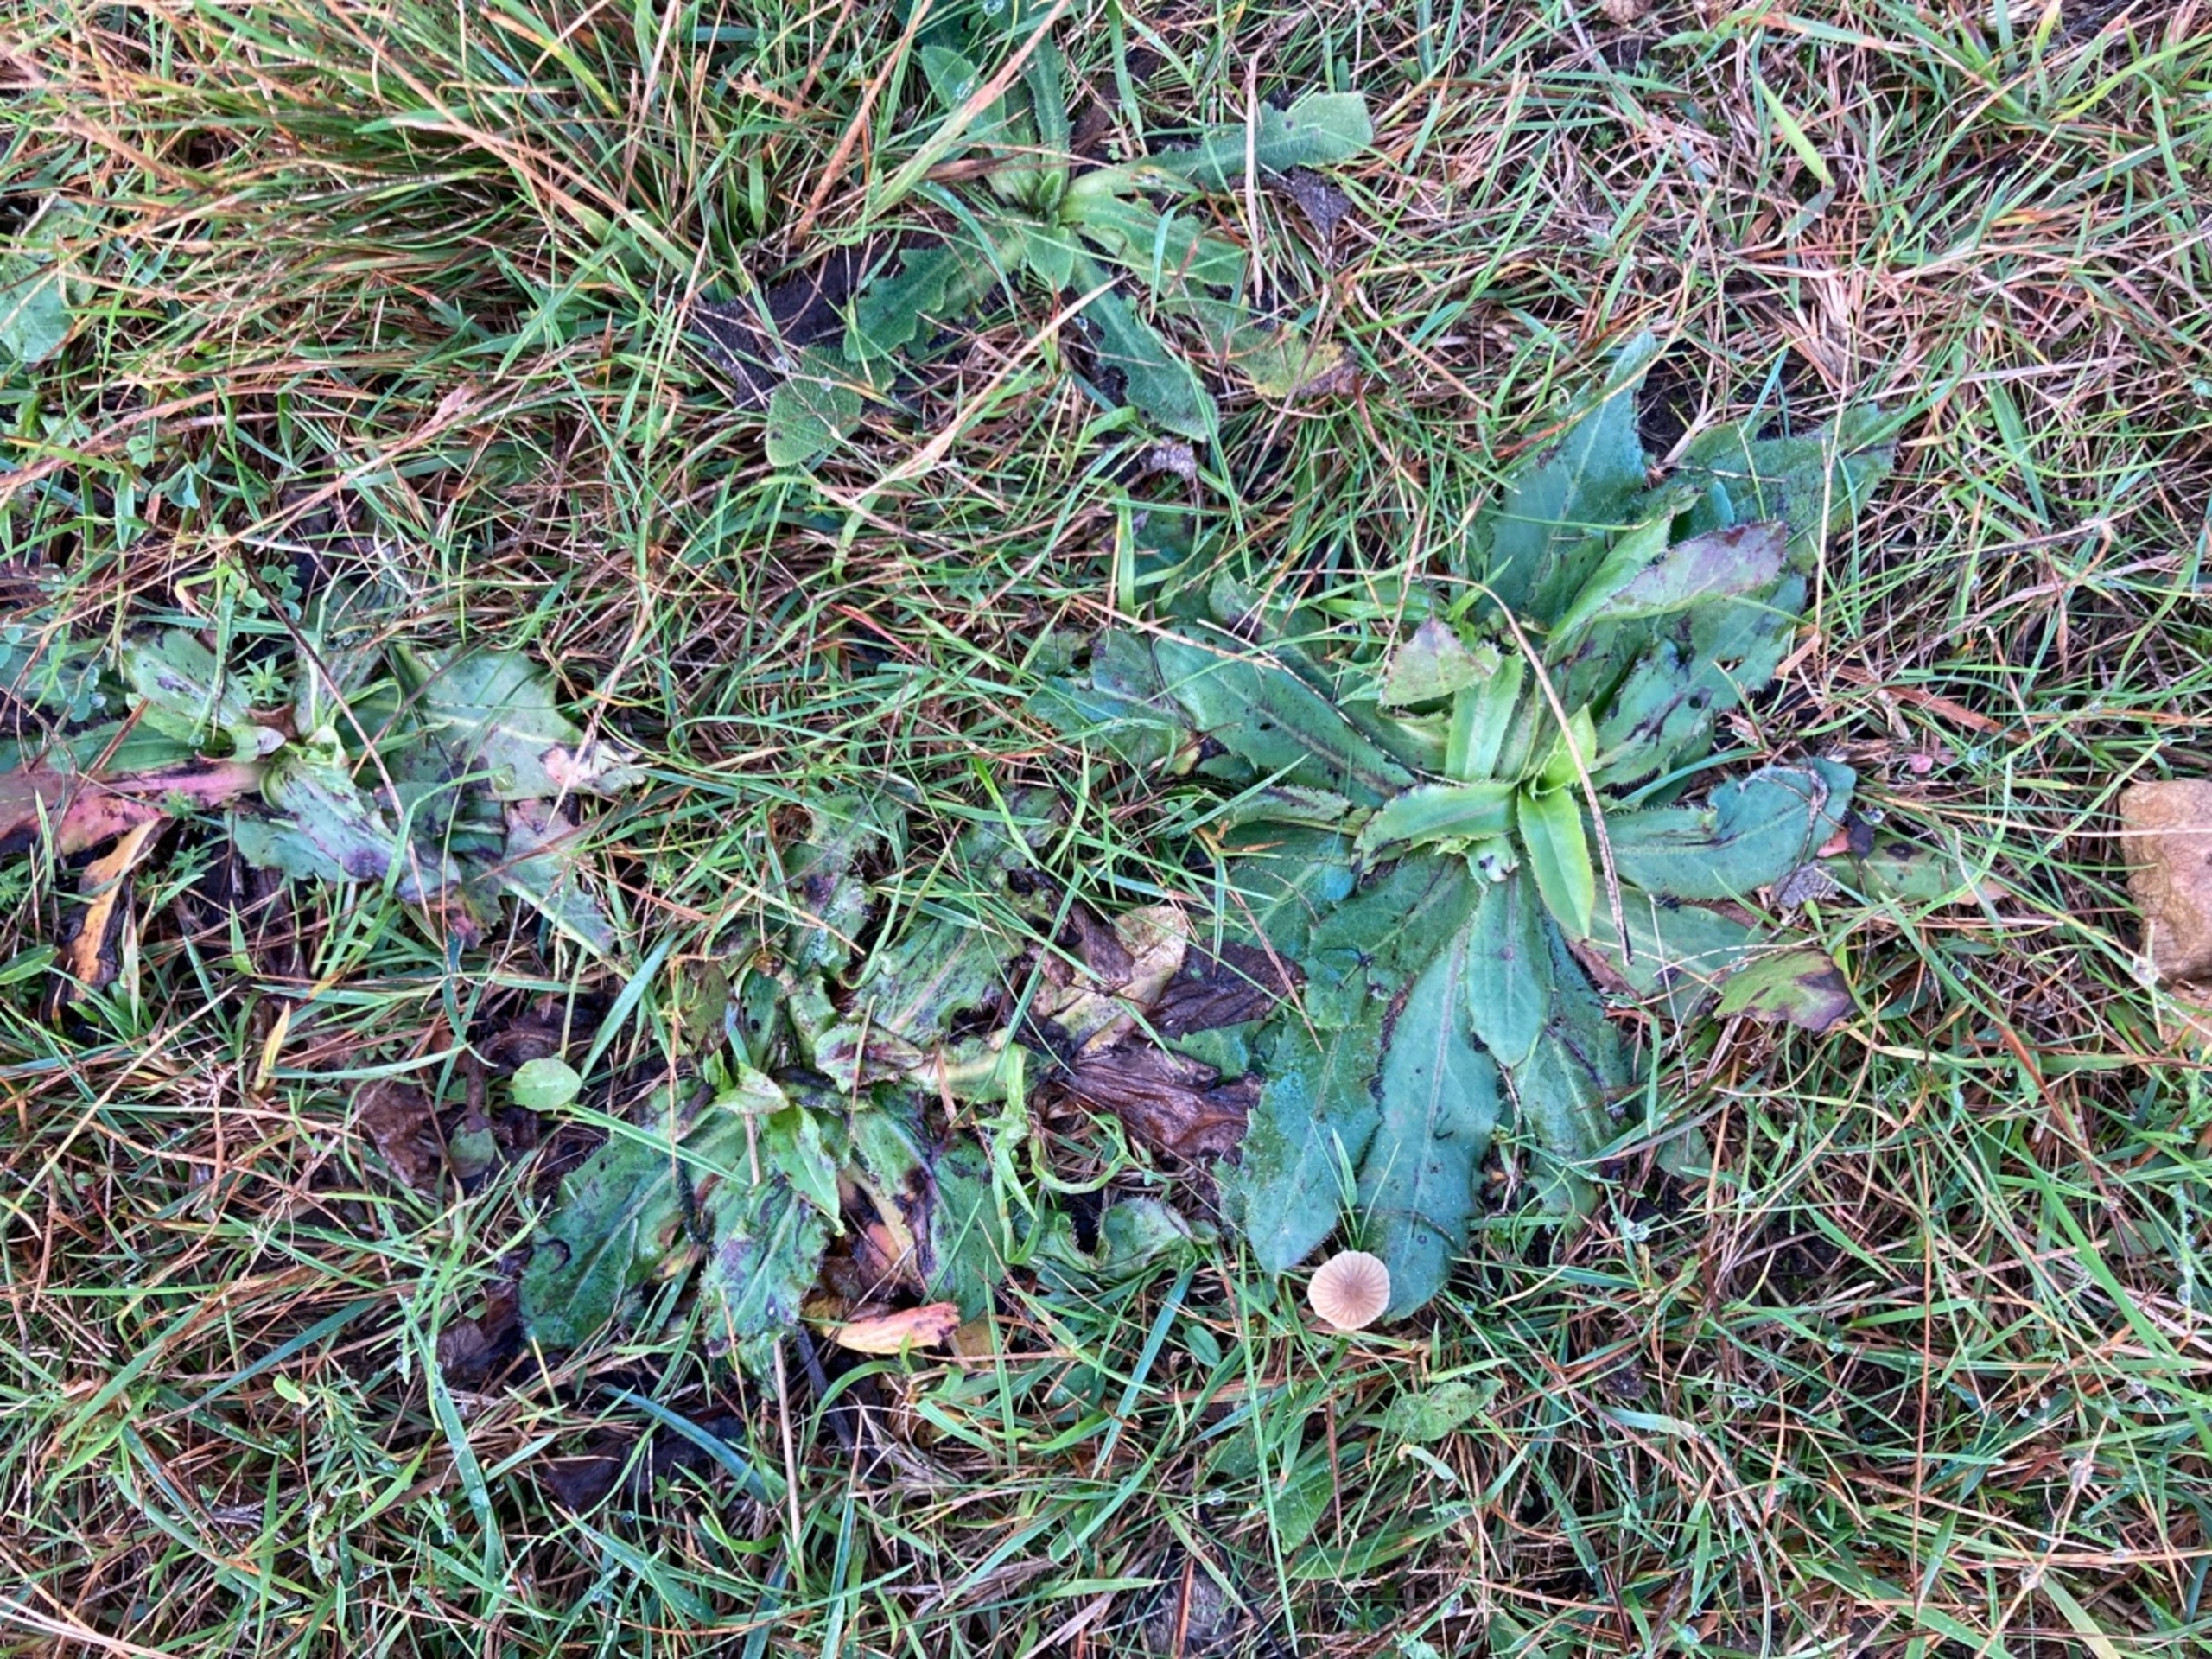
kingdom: Plantae
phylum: Tracheophyta
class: Magnoliopsida
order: Asterales
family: Asteraceae
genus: Trommsdorffia
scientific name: Trommsdorffia maculata
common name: Plettet kongepen
